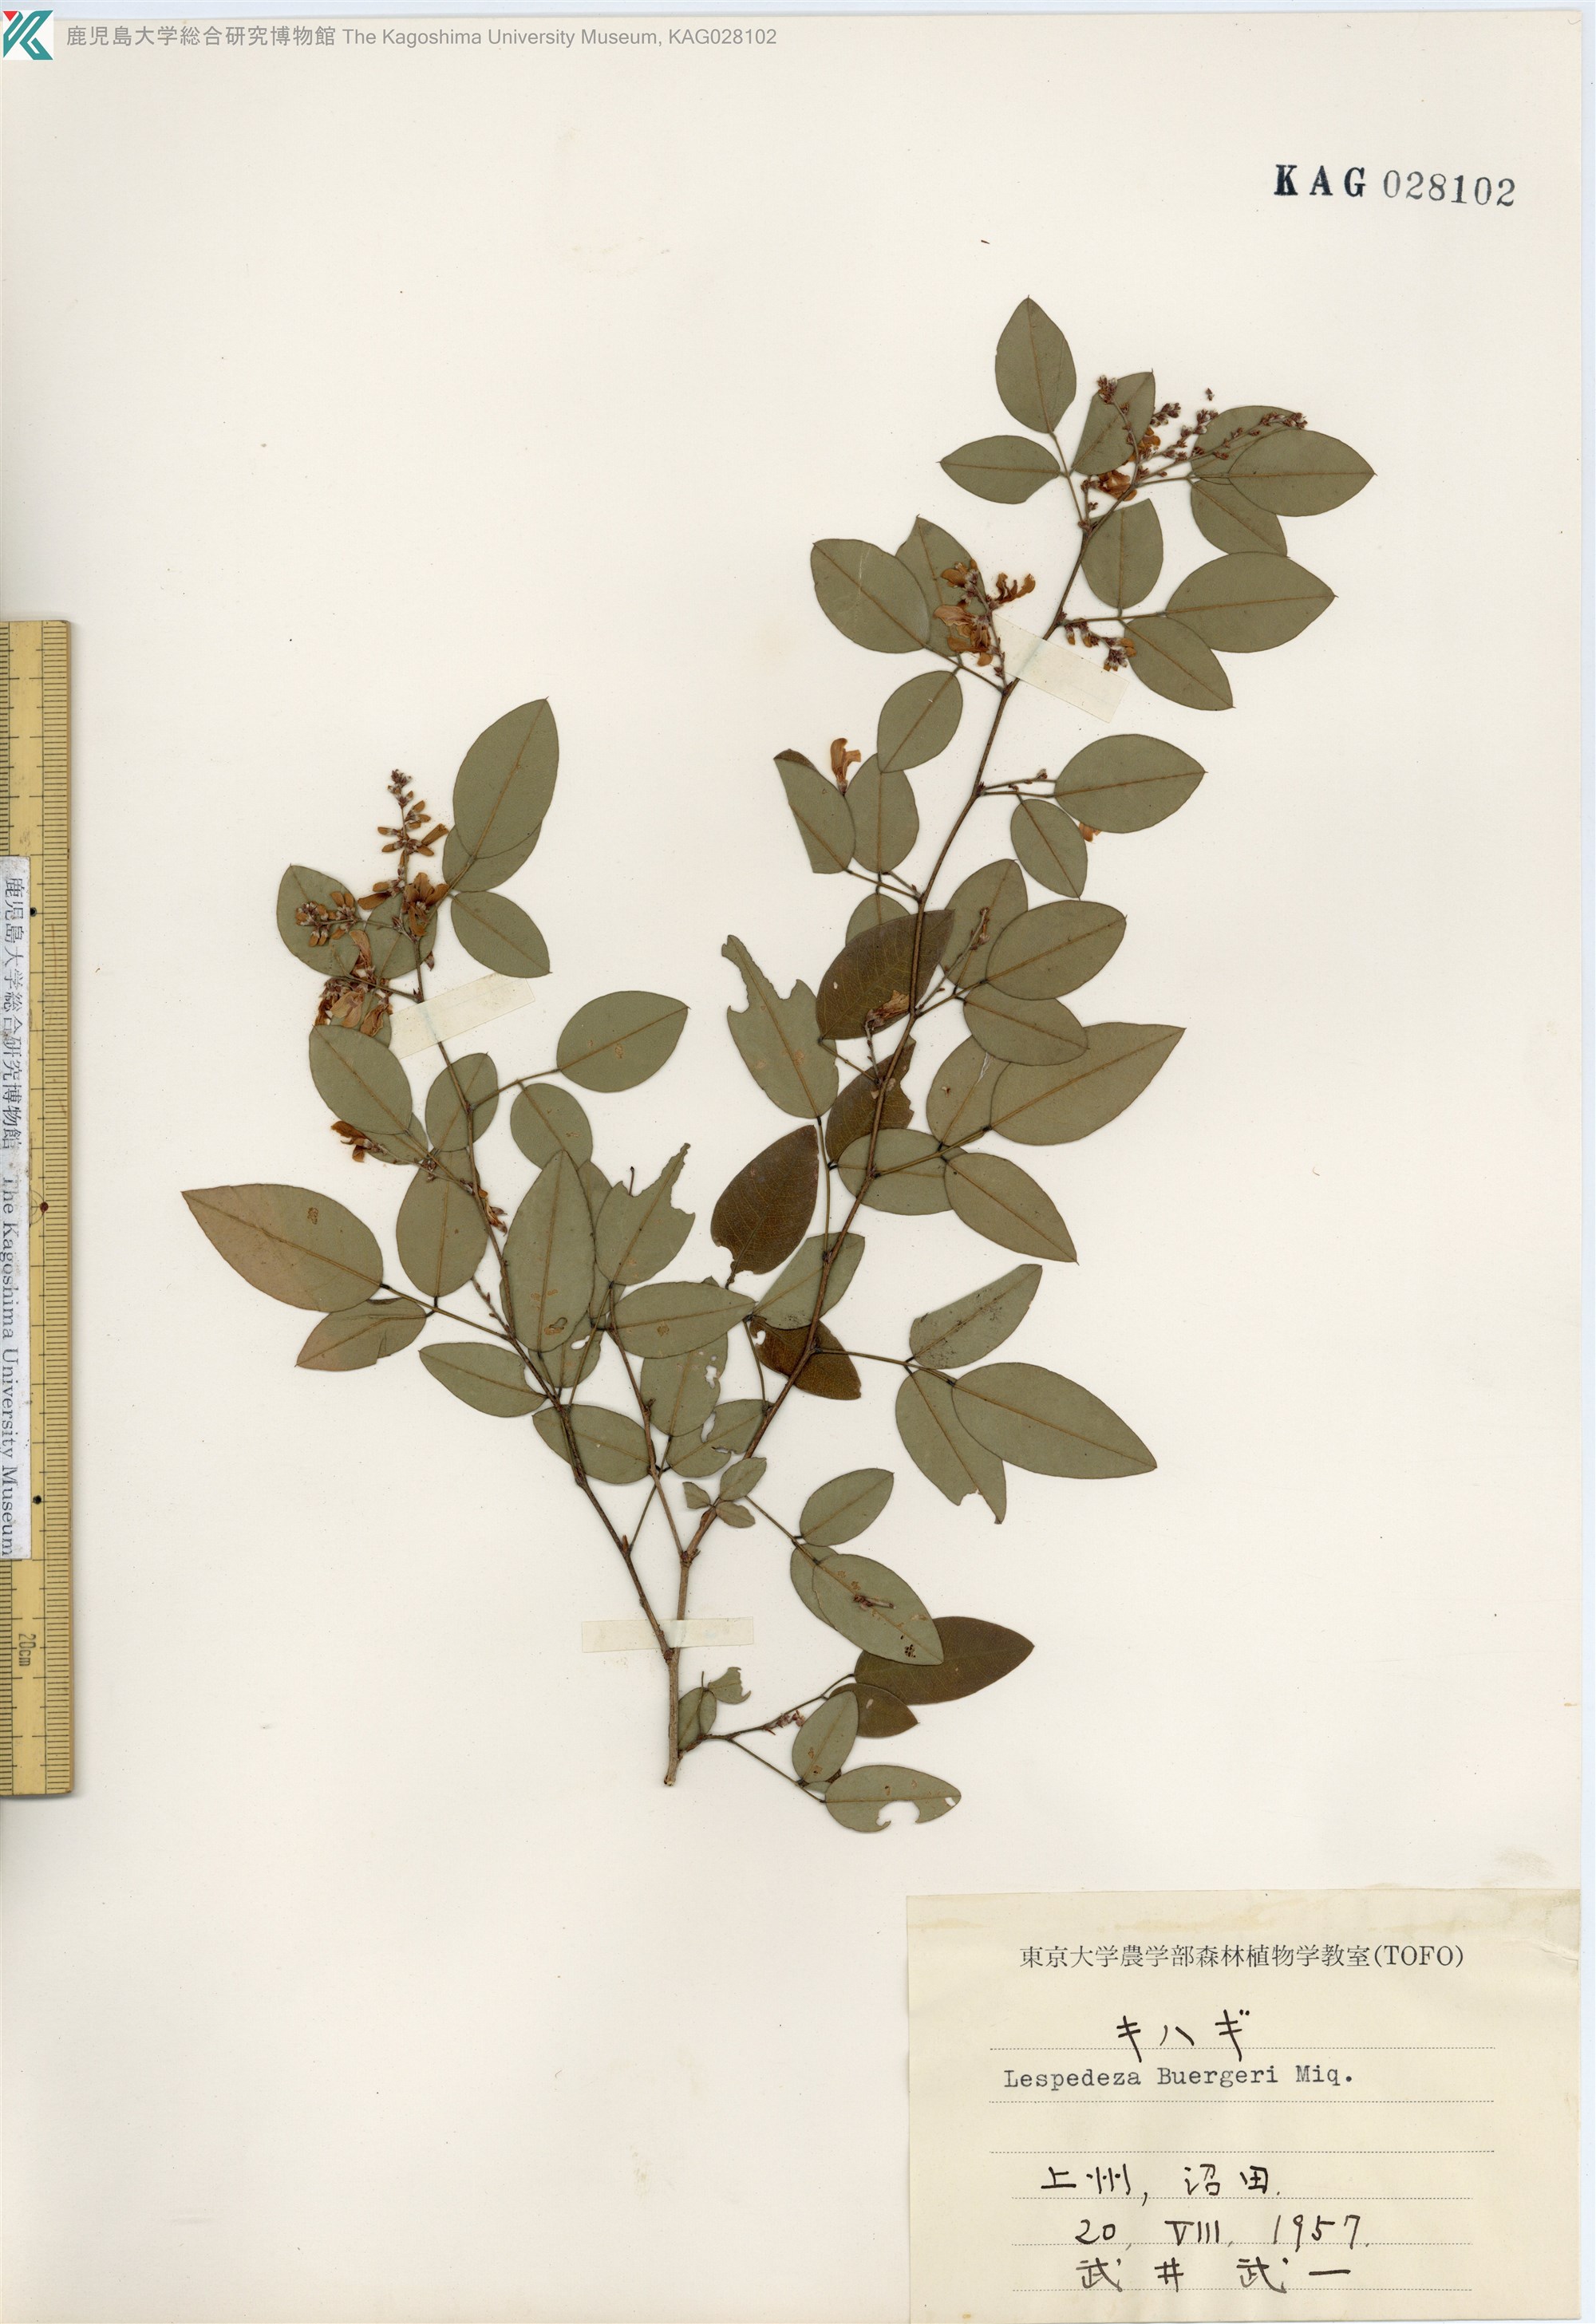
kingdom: Plantae
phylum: Tracheophyta
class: Magnoliopsida
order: Fabales
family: Fabaceae
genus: Lespedeza
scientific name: Lespedeza buergeri
